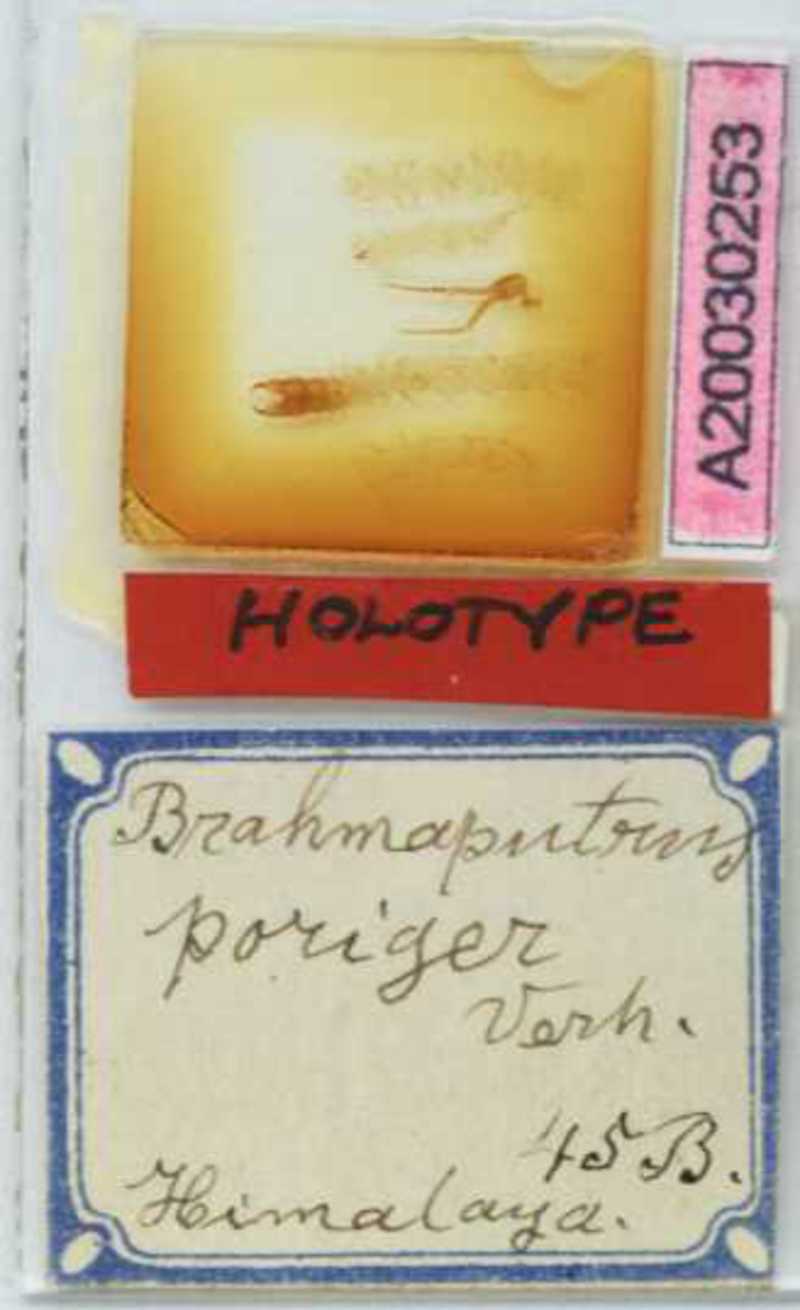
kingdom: Animalia
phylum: Arthropoda
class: Chilopoda
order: Geophilomorpha
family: Mecistocephalidae
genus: Tygarrup
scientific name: Tygarrup
